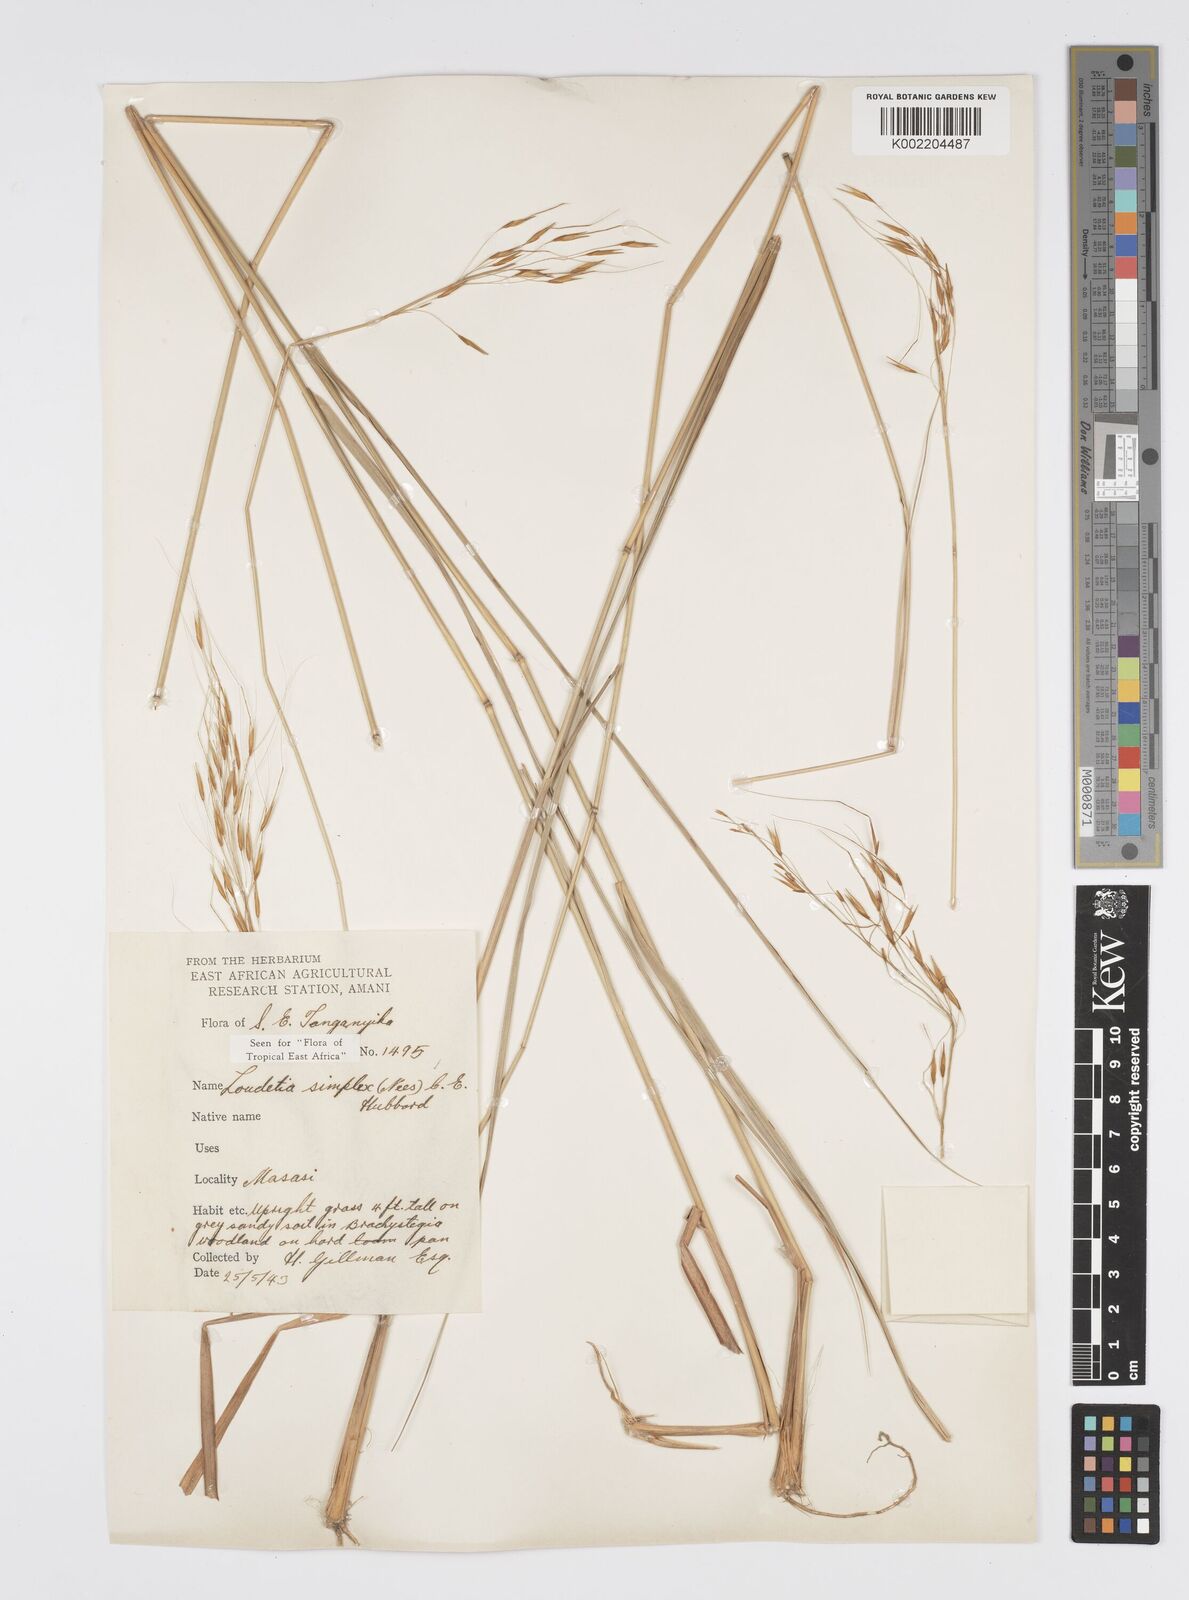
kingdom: Plantae
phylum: Tracheophyta
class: Liliopsida
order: Poales
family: Poaceae
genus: Loudetia
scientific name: Loudetia simplex
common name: Common russet grass
